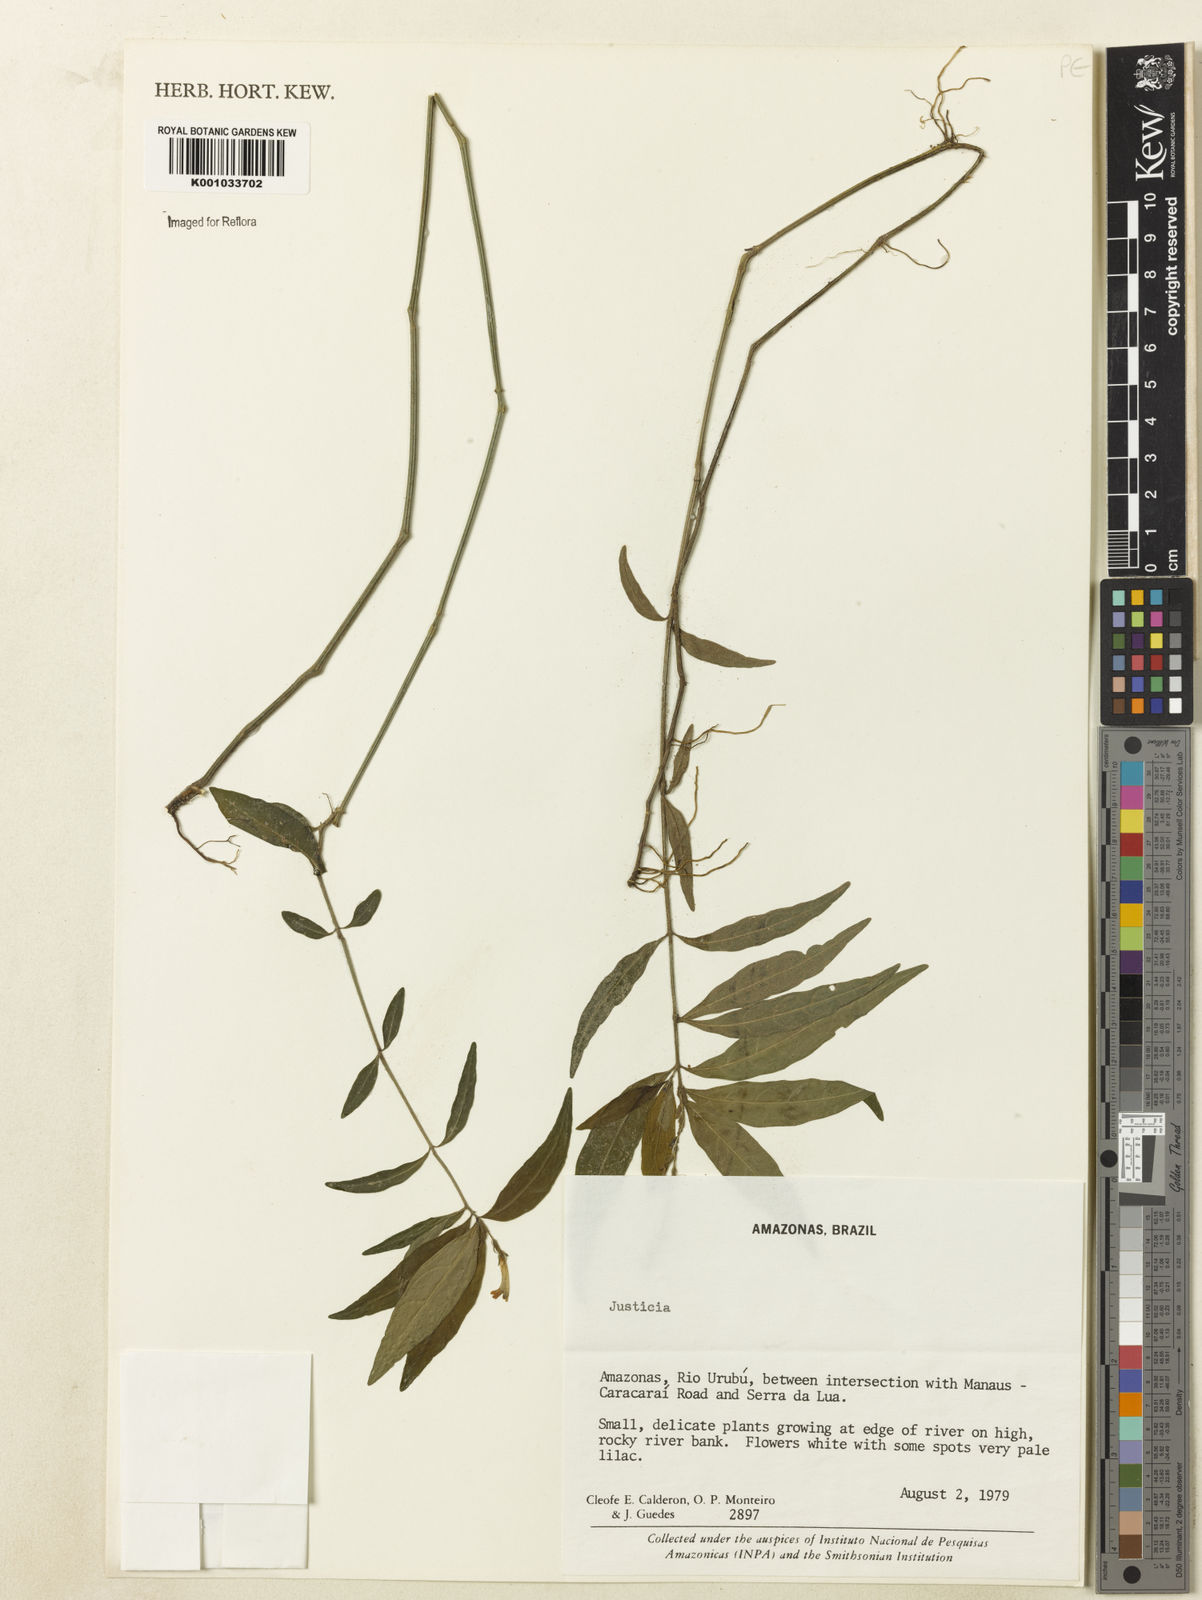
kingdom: Plantae
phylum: Tracheophyta
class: Magnoliopsida
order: Lamiales
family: Acanthaceae
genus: Justicia
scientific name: Justicia
